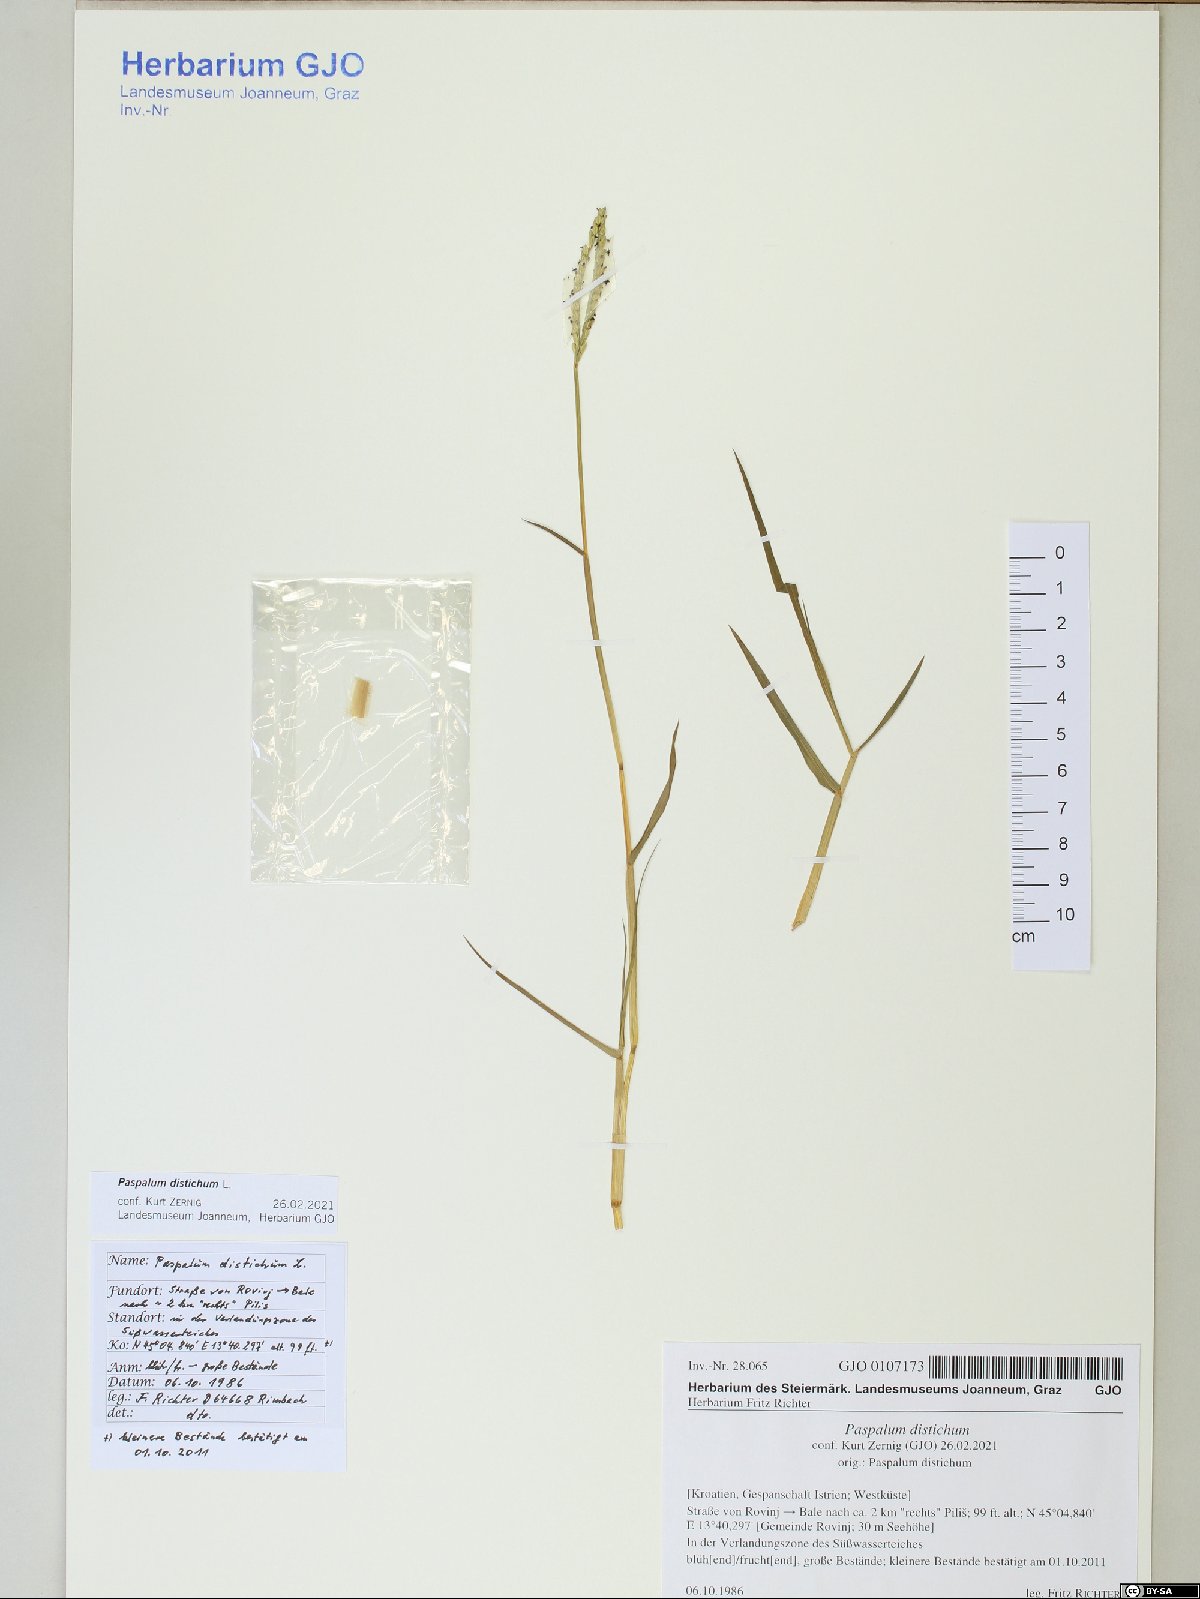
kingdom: Plantae
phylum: Tracheophyta
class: Liliopsida
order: Poales
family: Poaceae
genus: Paspalum
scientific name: Paspalum distichum
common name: Knotgrass
